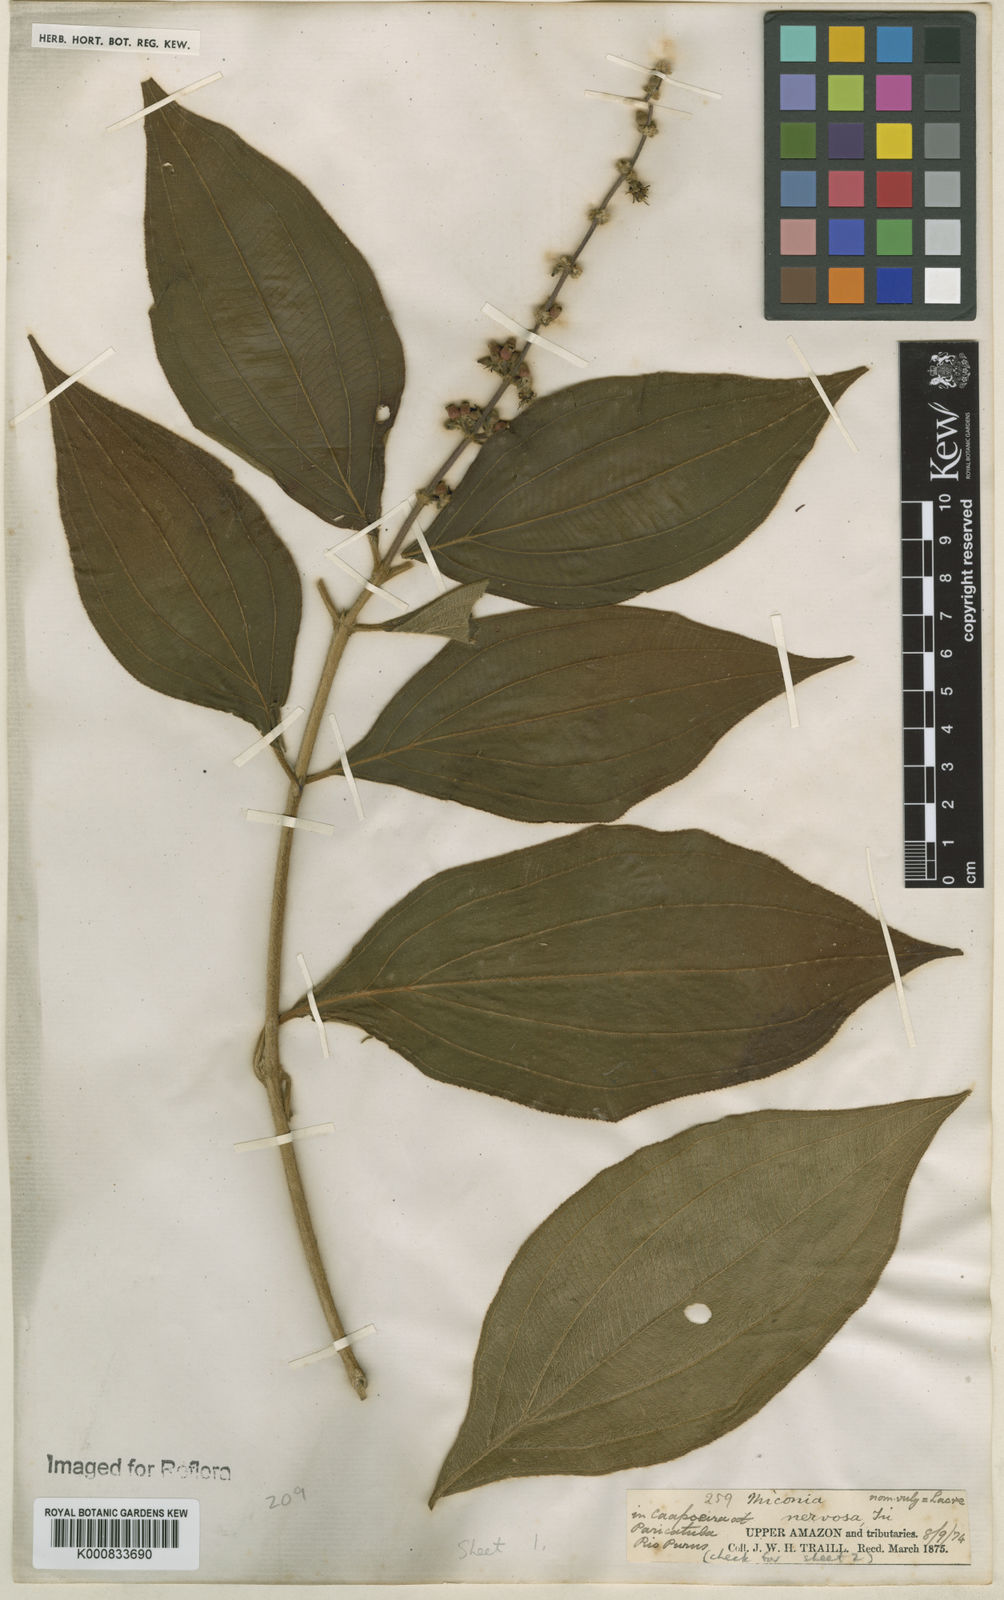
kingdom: Plantae
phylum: Tracheophyta
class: Magnoliopsida
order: Myrtales
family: Melastomataceae
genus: Miconia
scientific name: Miconia nervosa
